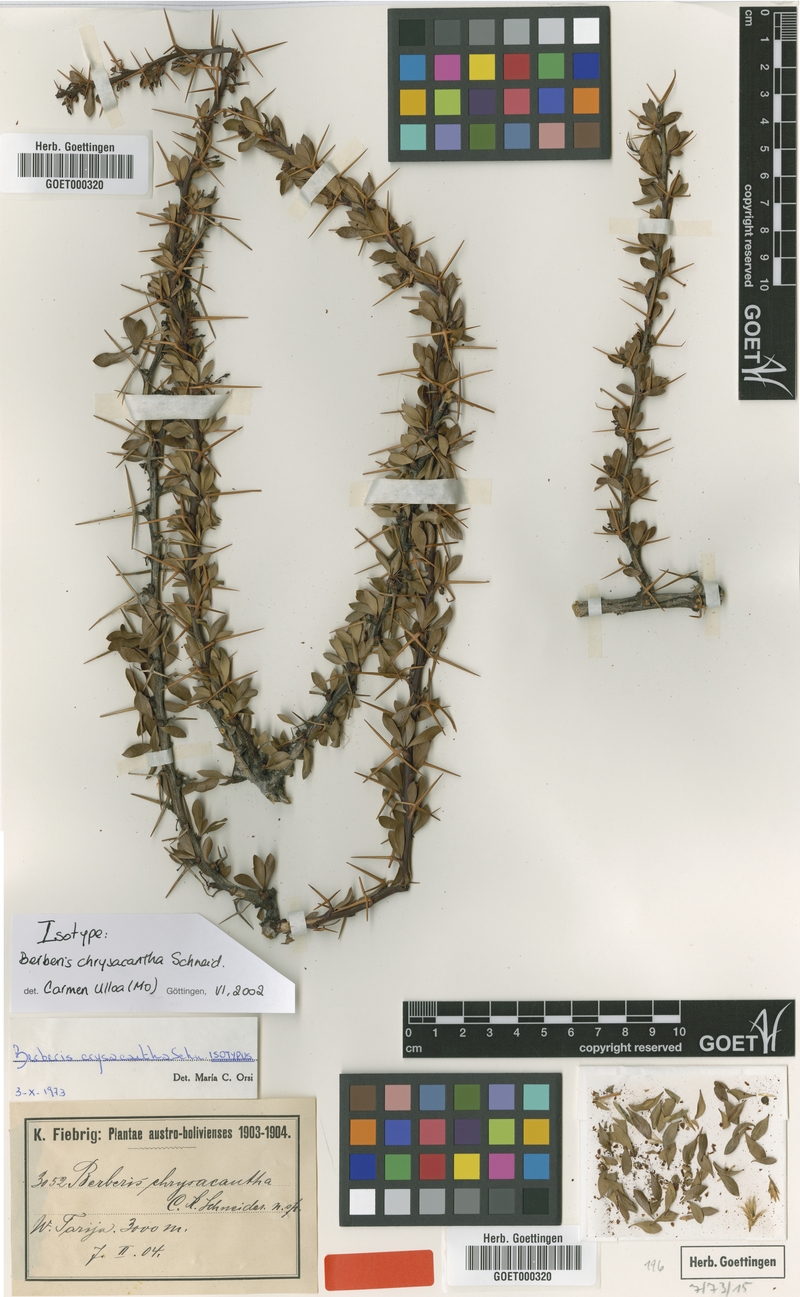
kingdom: Plantae
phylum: Tracheophyta
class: Magnoliopsida
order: Ranunculales
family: Berberidaceae
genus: Berberis
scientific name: Berberis boliviana
